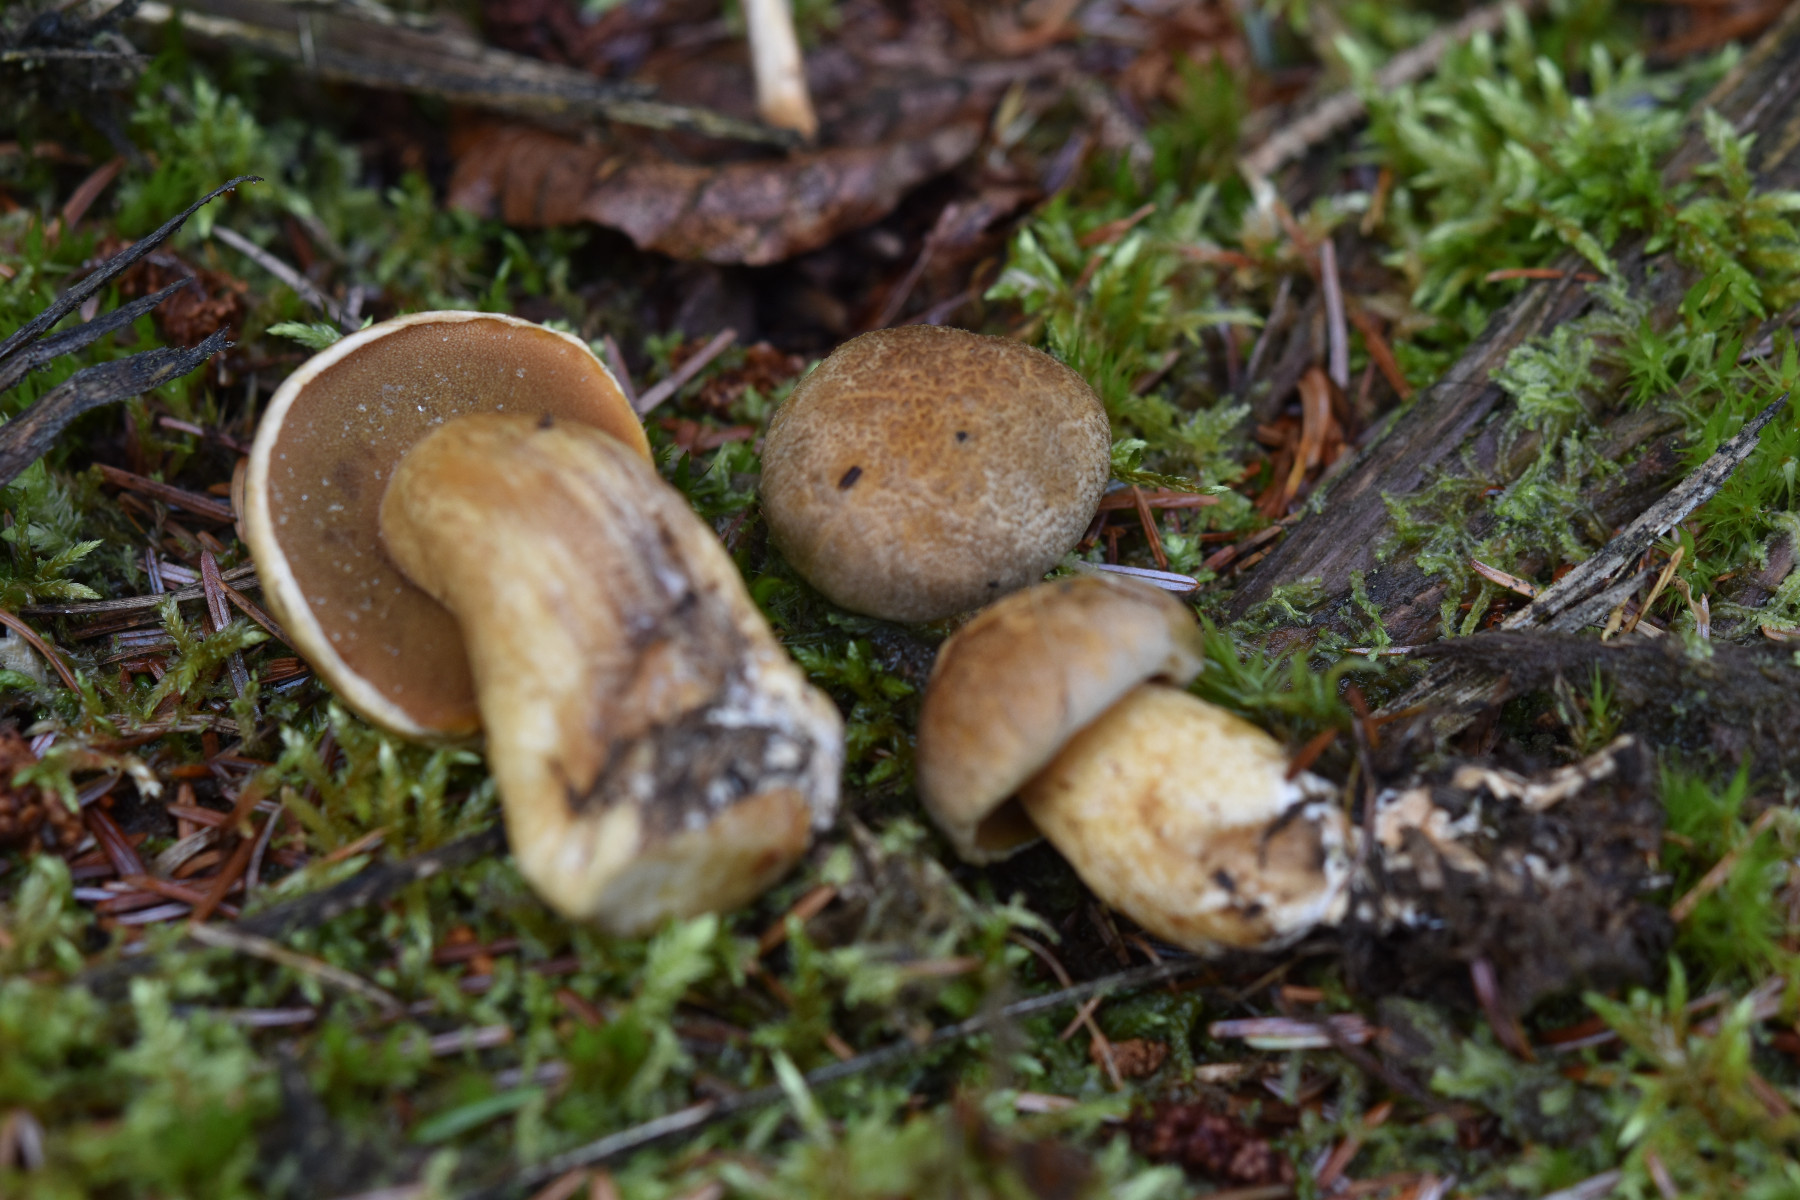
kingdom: Fungi
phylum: Basidiomycota
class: Agaricomycetes
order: Boletales
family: Suillaceae
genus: Suillus
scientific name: Suillus variegatus
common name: broget slimrørhat
